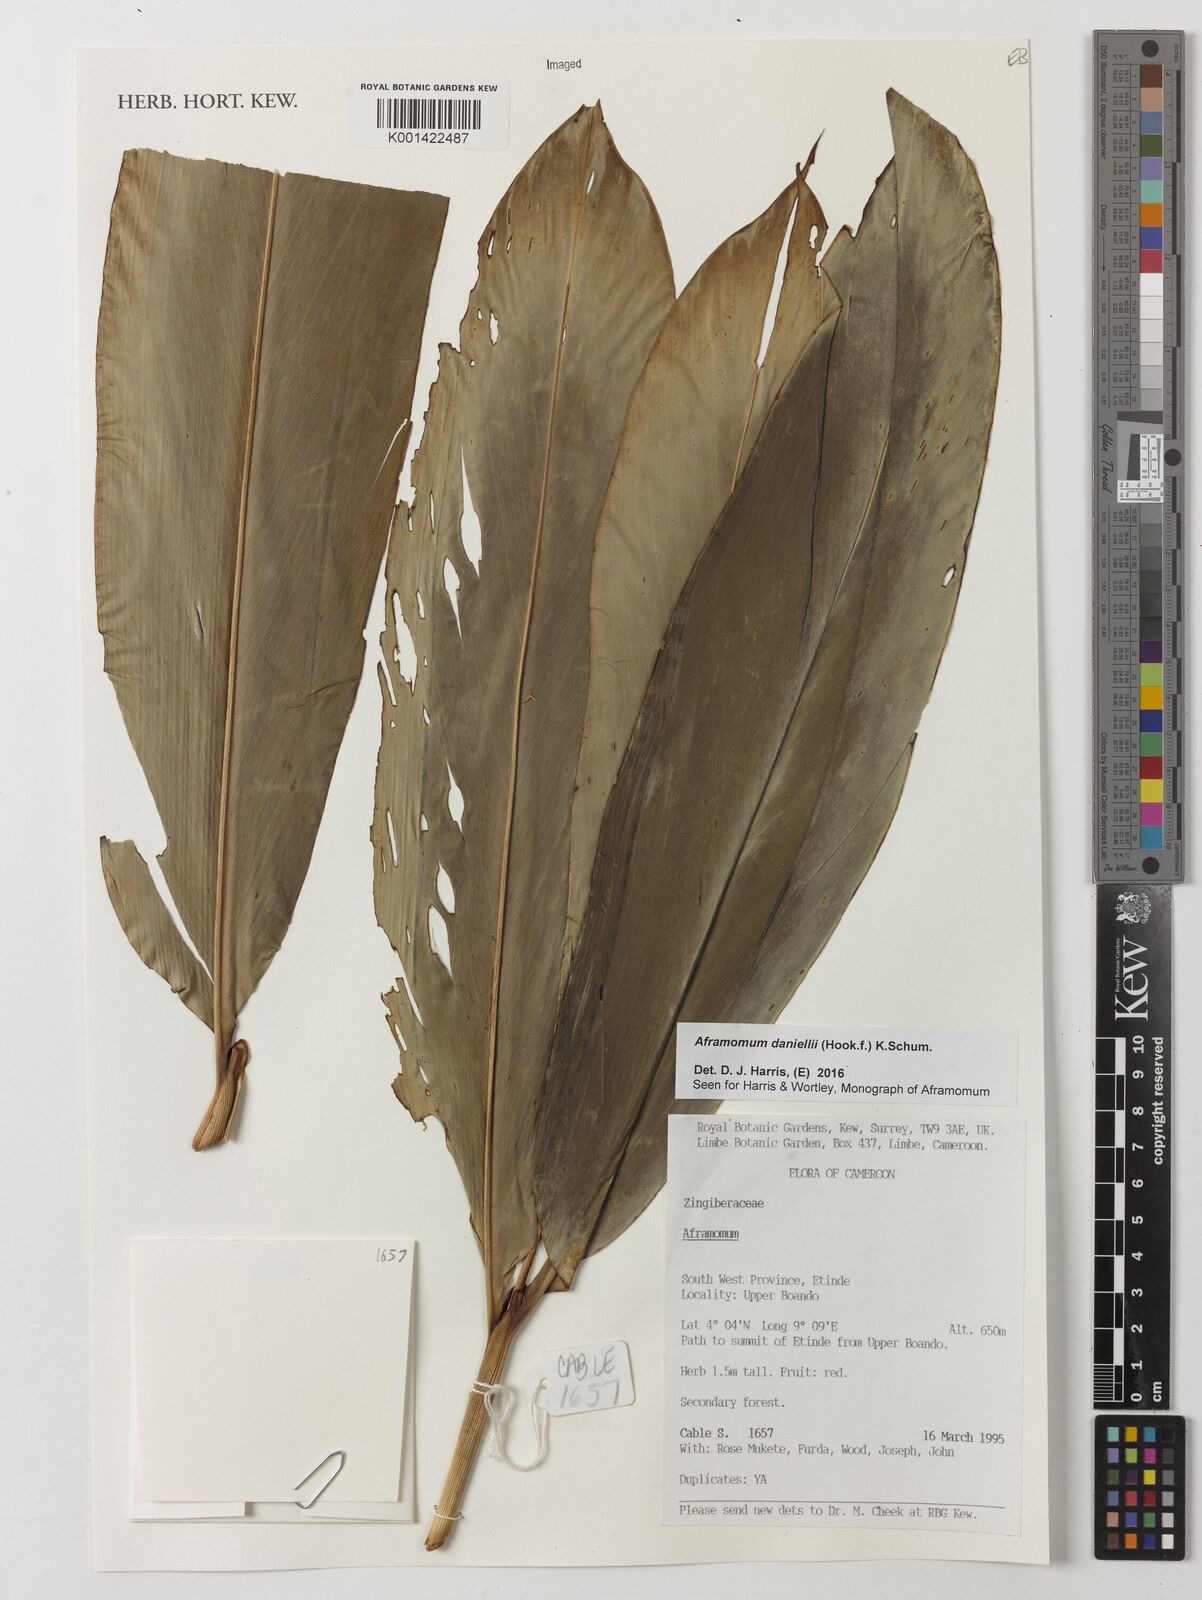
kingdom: Plantae
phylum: Tracheophyta
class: Liliopsida
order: Zingiberales
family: Zingiberaceae
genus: Aframomum
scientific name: Aframomum daniellii
